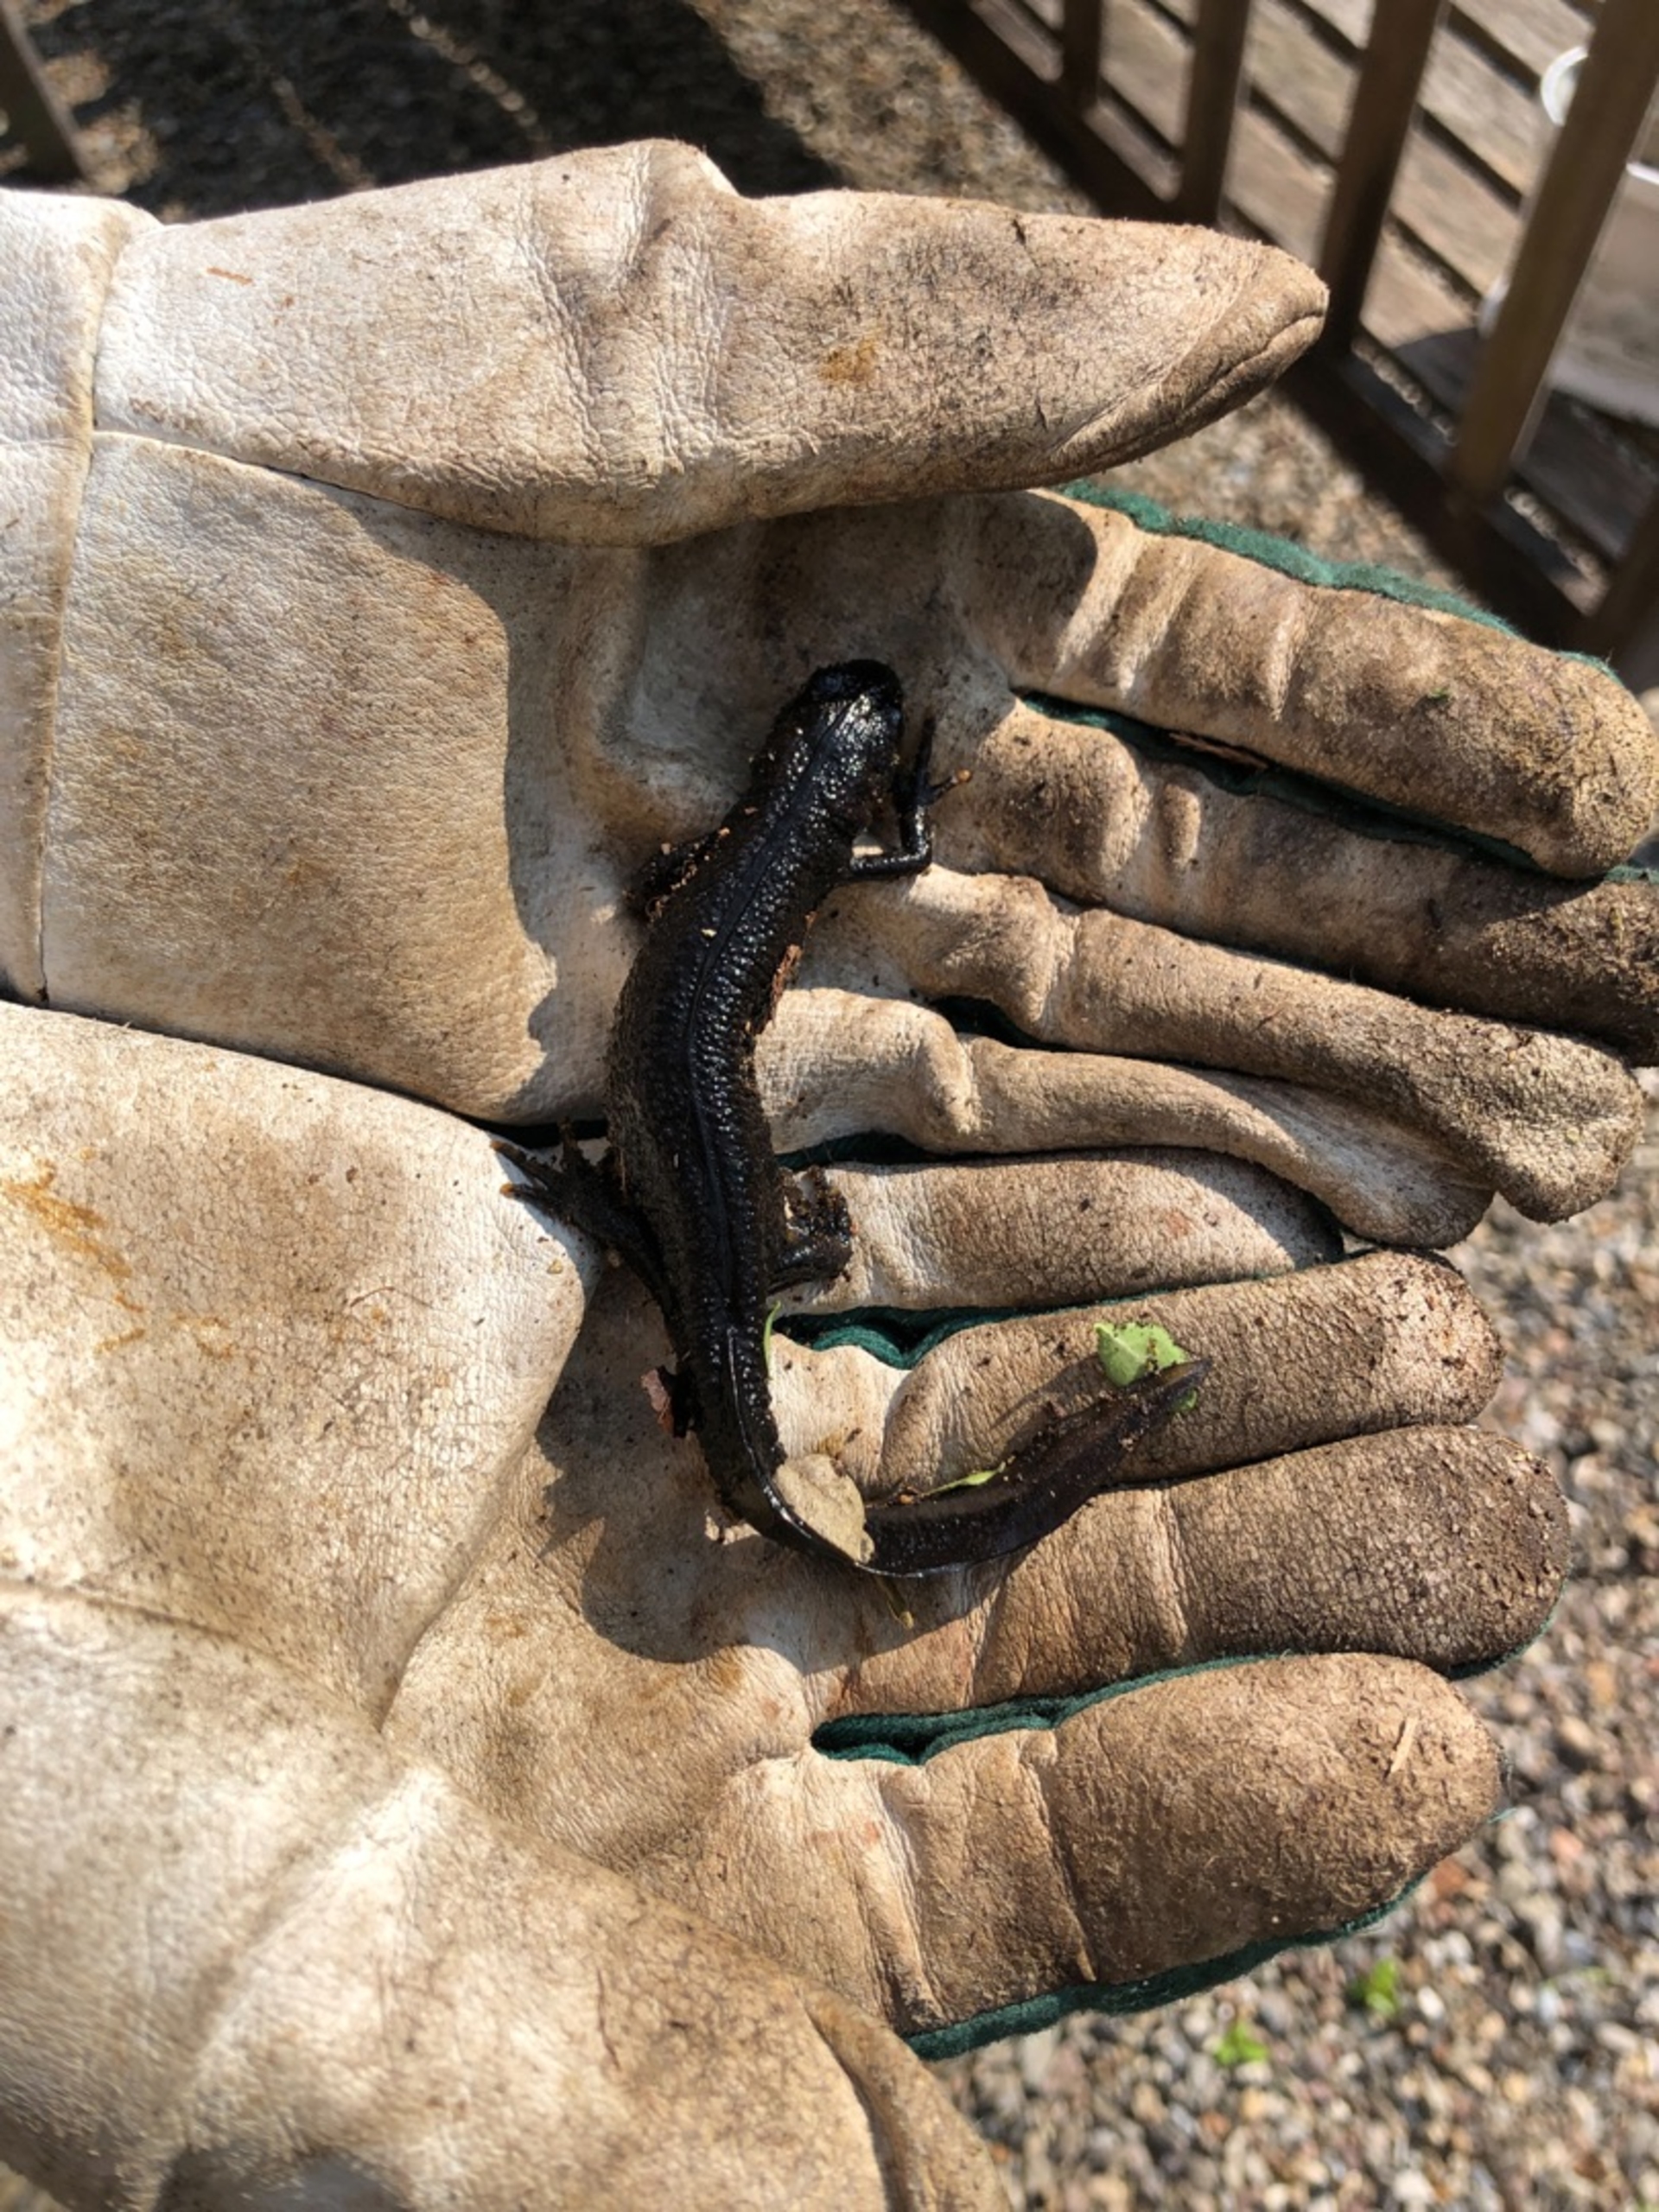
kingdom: Animalia
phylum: Chordata
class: Amphibia
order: Caudata
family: Salamandridae
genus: Triturus
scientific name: Triturus cristatus
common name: Stor vandsalamander
